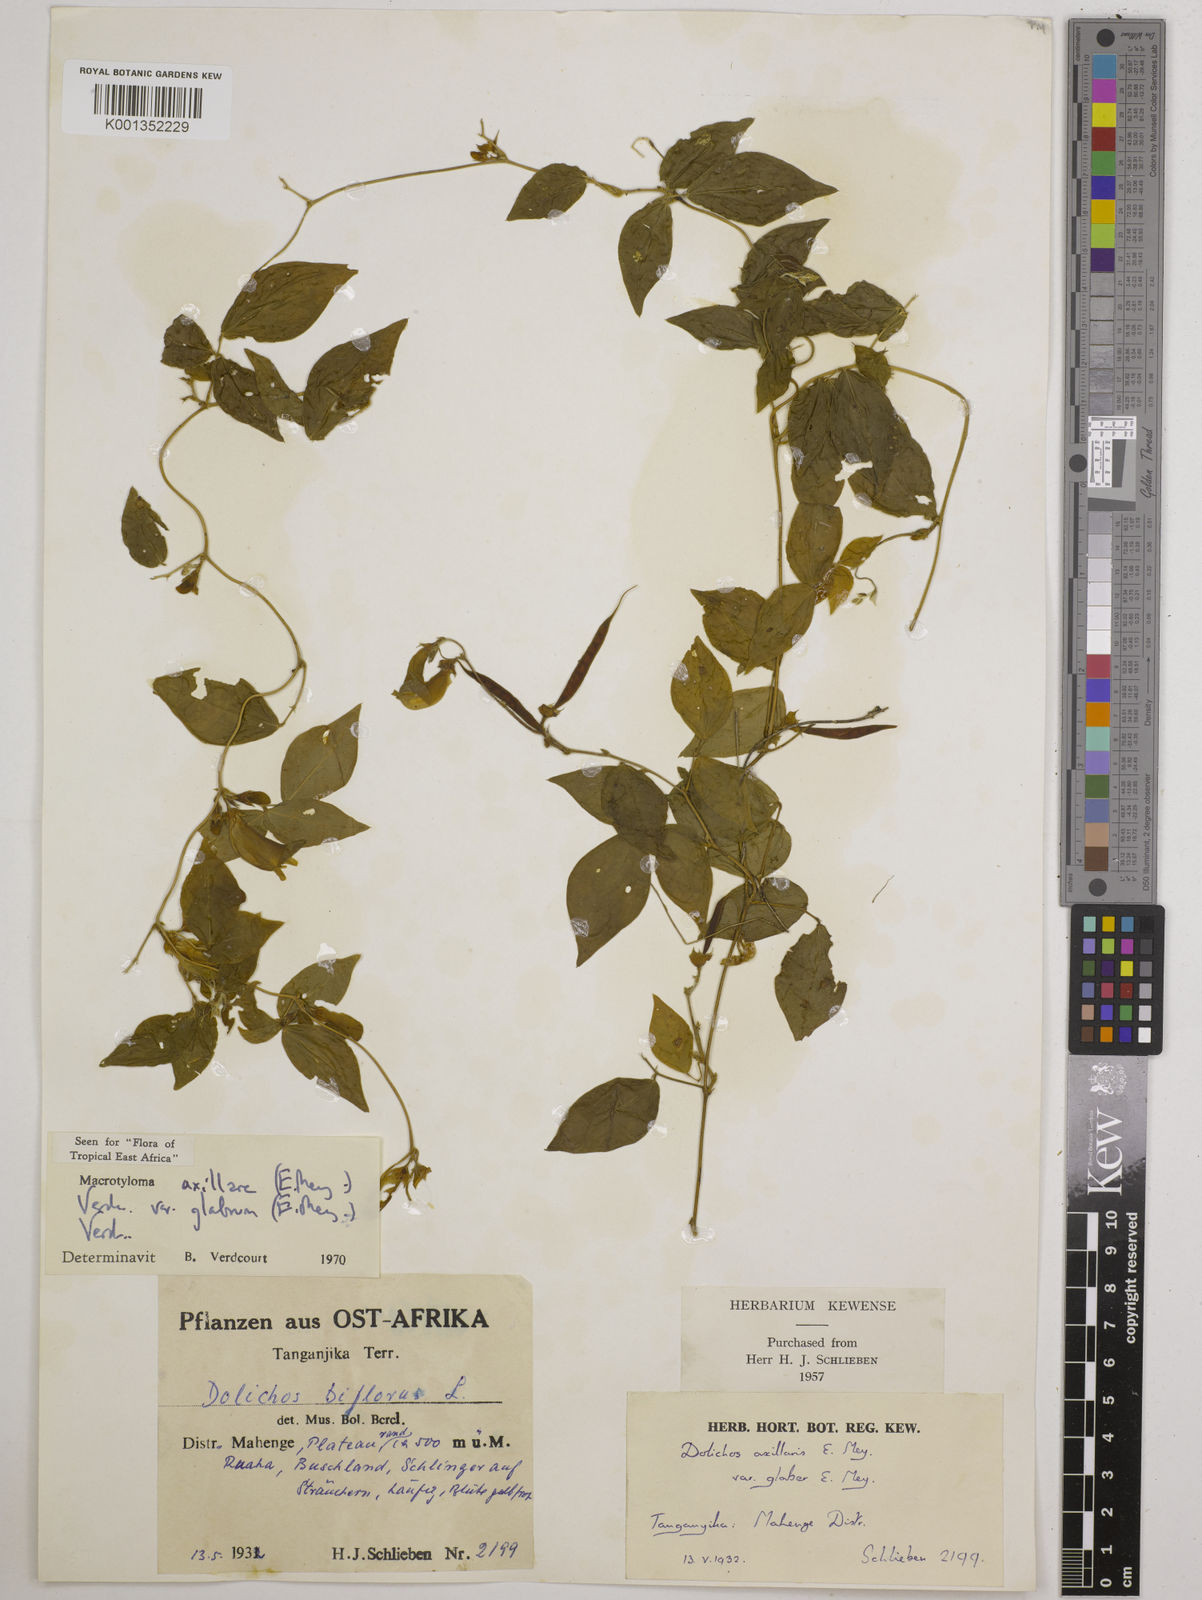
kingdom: Plantae
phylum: Tracheophyta
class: Magnoliopsida
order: Fabales
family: Fabaceae
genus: Macrotyloma
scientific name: Macrotyloma
